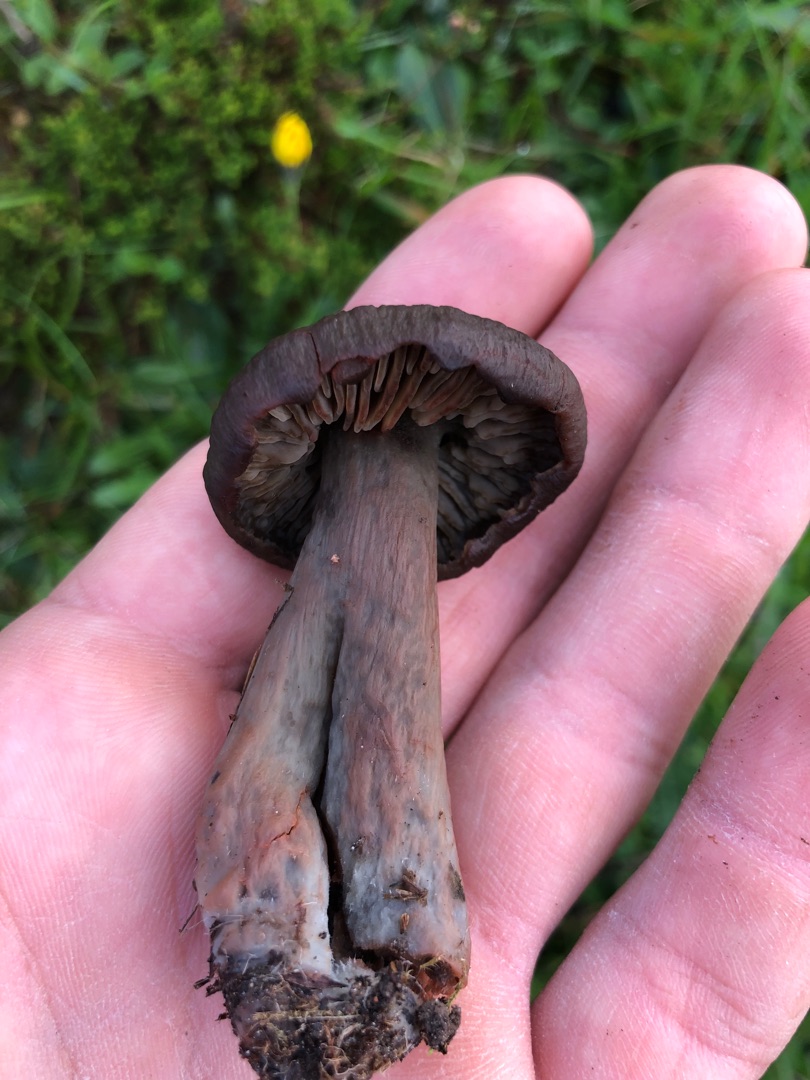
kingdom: Fungi
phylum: Basidiomycota
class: Agaricomycetes
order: Agaricales
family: Hygrophoraceae
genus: Neohygrocybe
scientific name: Neohygrocybe ovina
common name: Rødmende vokshat
